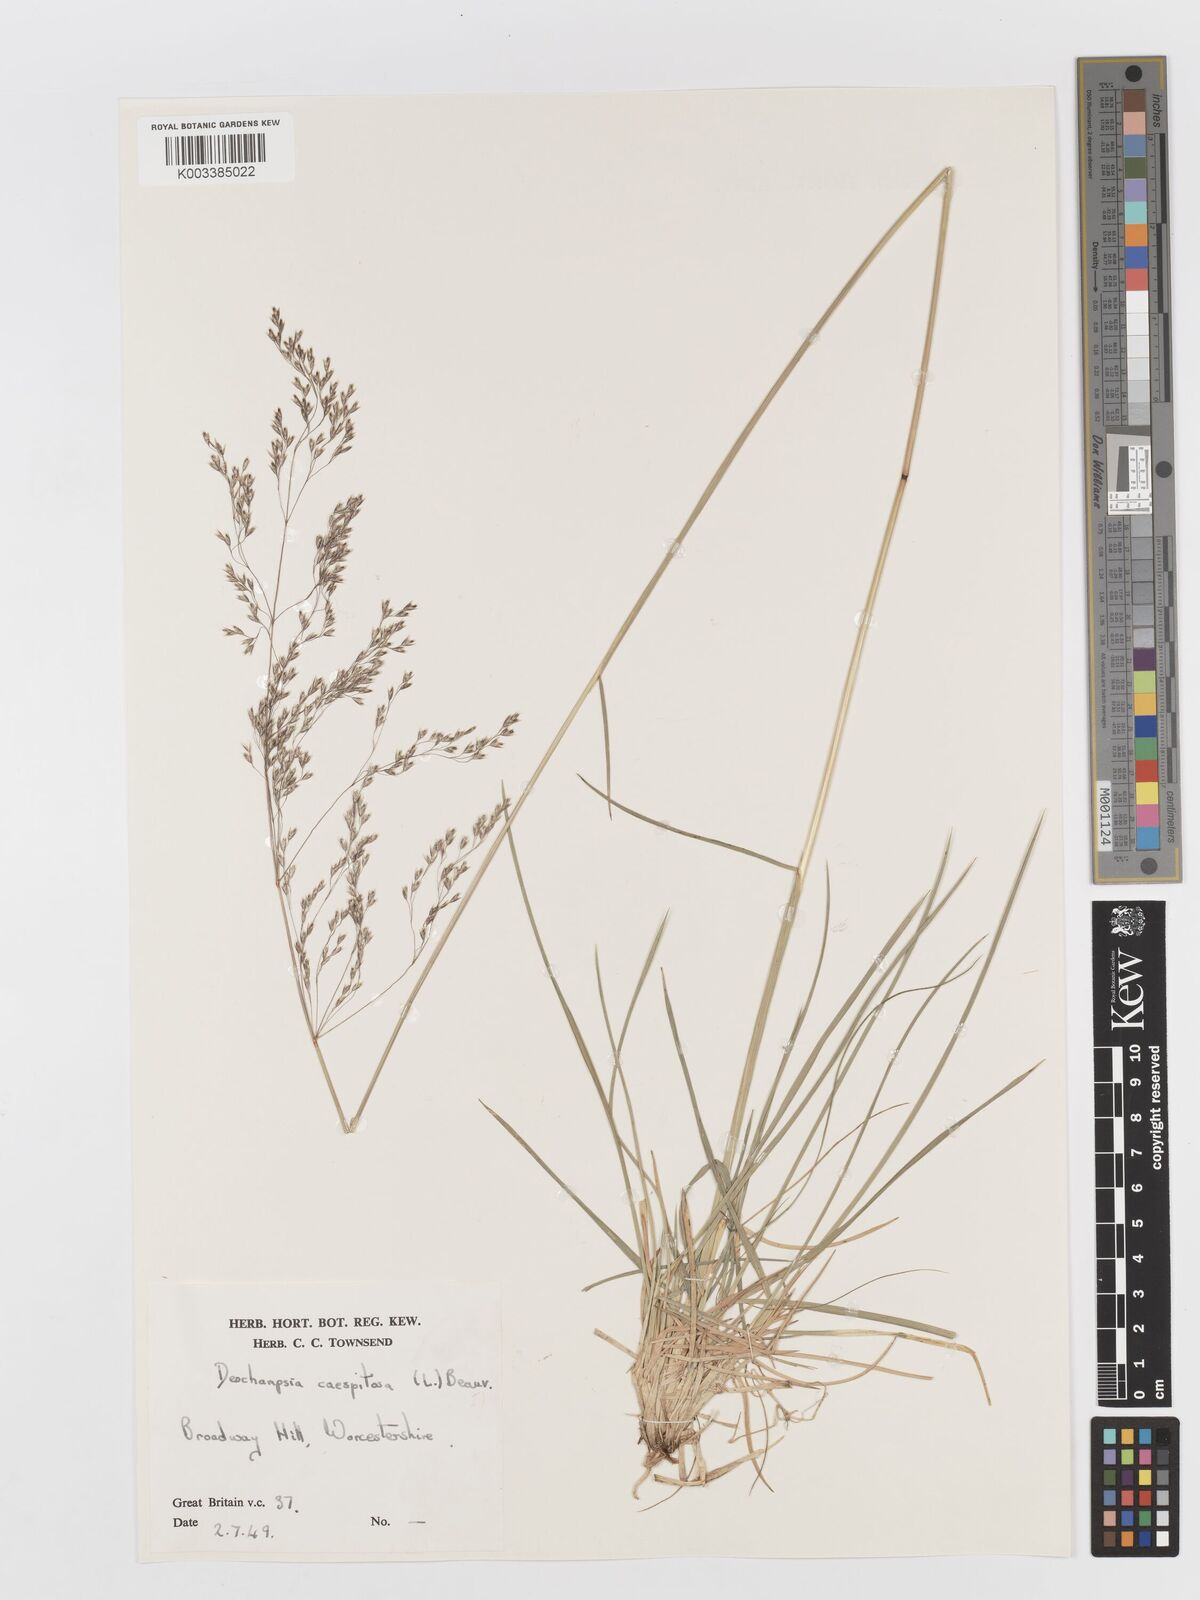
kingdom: Plantae
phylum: Tracheophyta
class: Liliopsida
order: Poales
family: Poaceae
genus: Deschampsia
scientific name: Deschampsia cespitosa
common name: Tufted hair-grass
